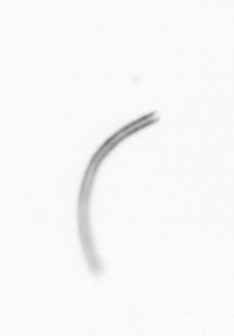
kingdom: Chromista
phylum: Ochrophyta
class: Bacillariophyceae
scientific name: Bacillariophyceae
